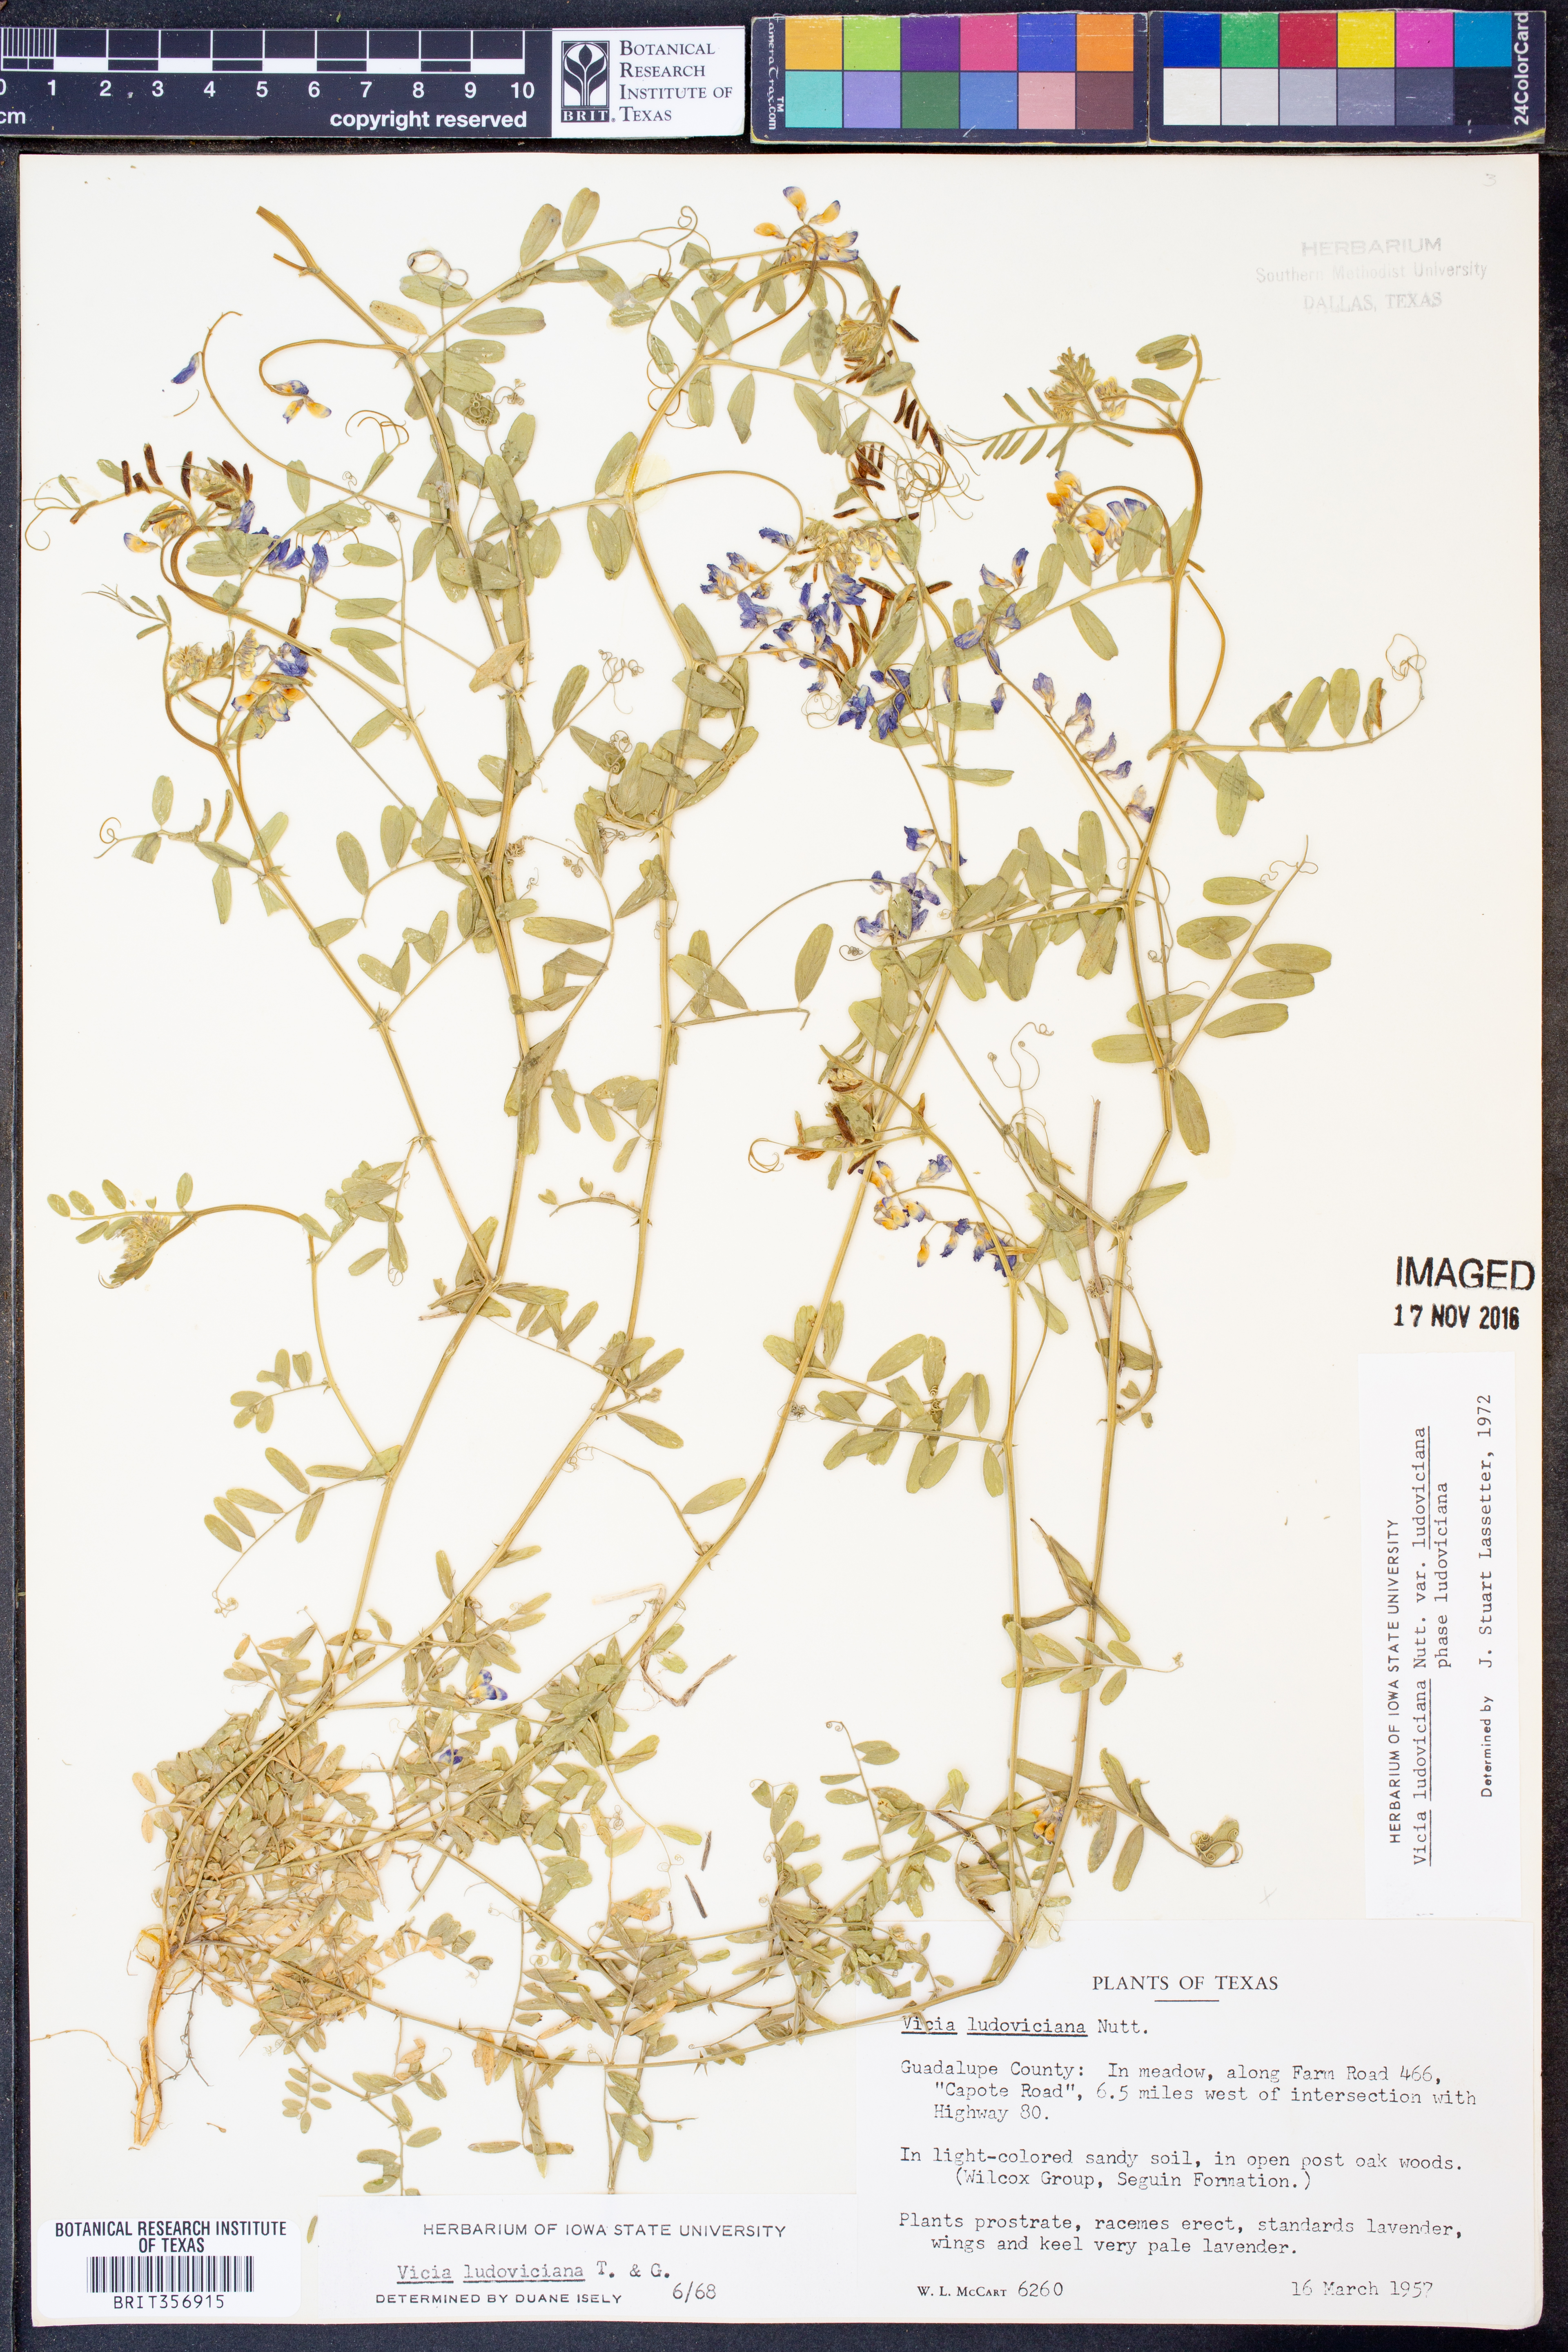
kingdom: Plantae
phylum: Tracheophyta
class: Magnoliopsida
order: Fabales
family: Fabaceae
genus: Vicia
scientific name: Vicia ludoviciana
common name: Louisiana vetch
